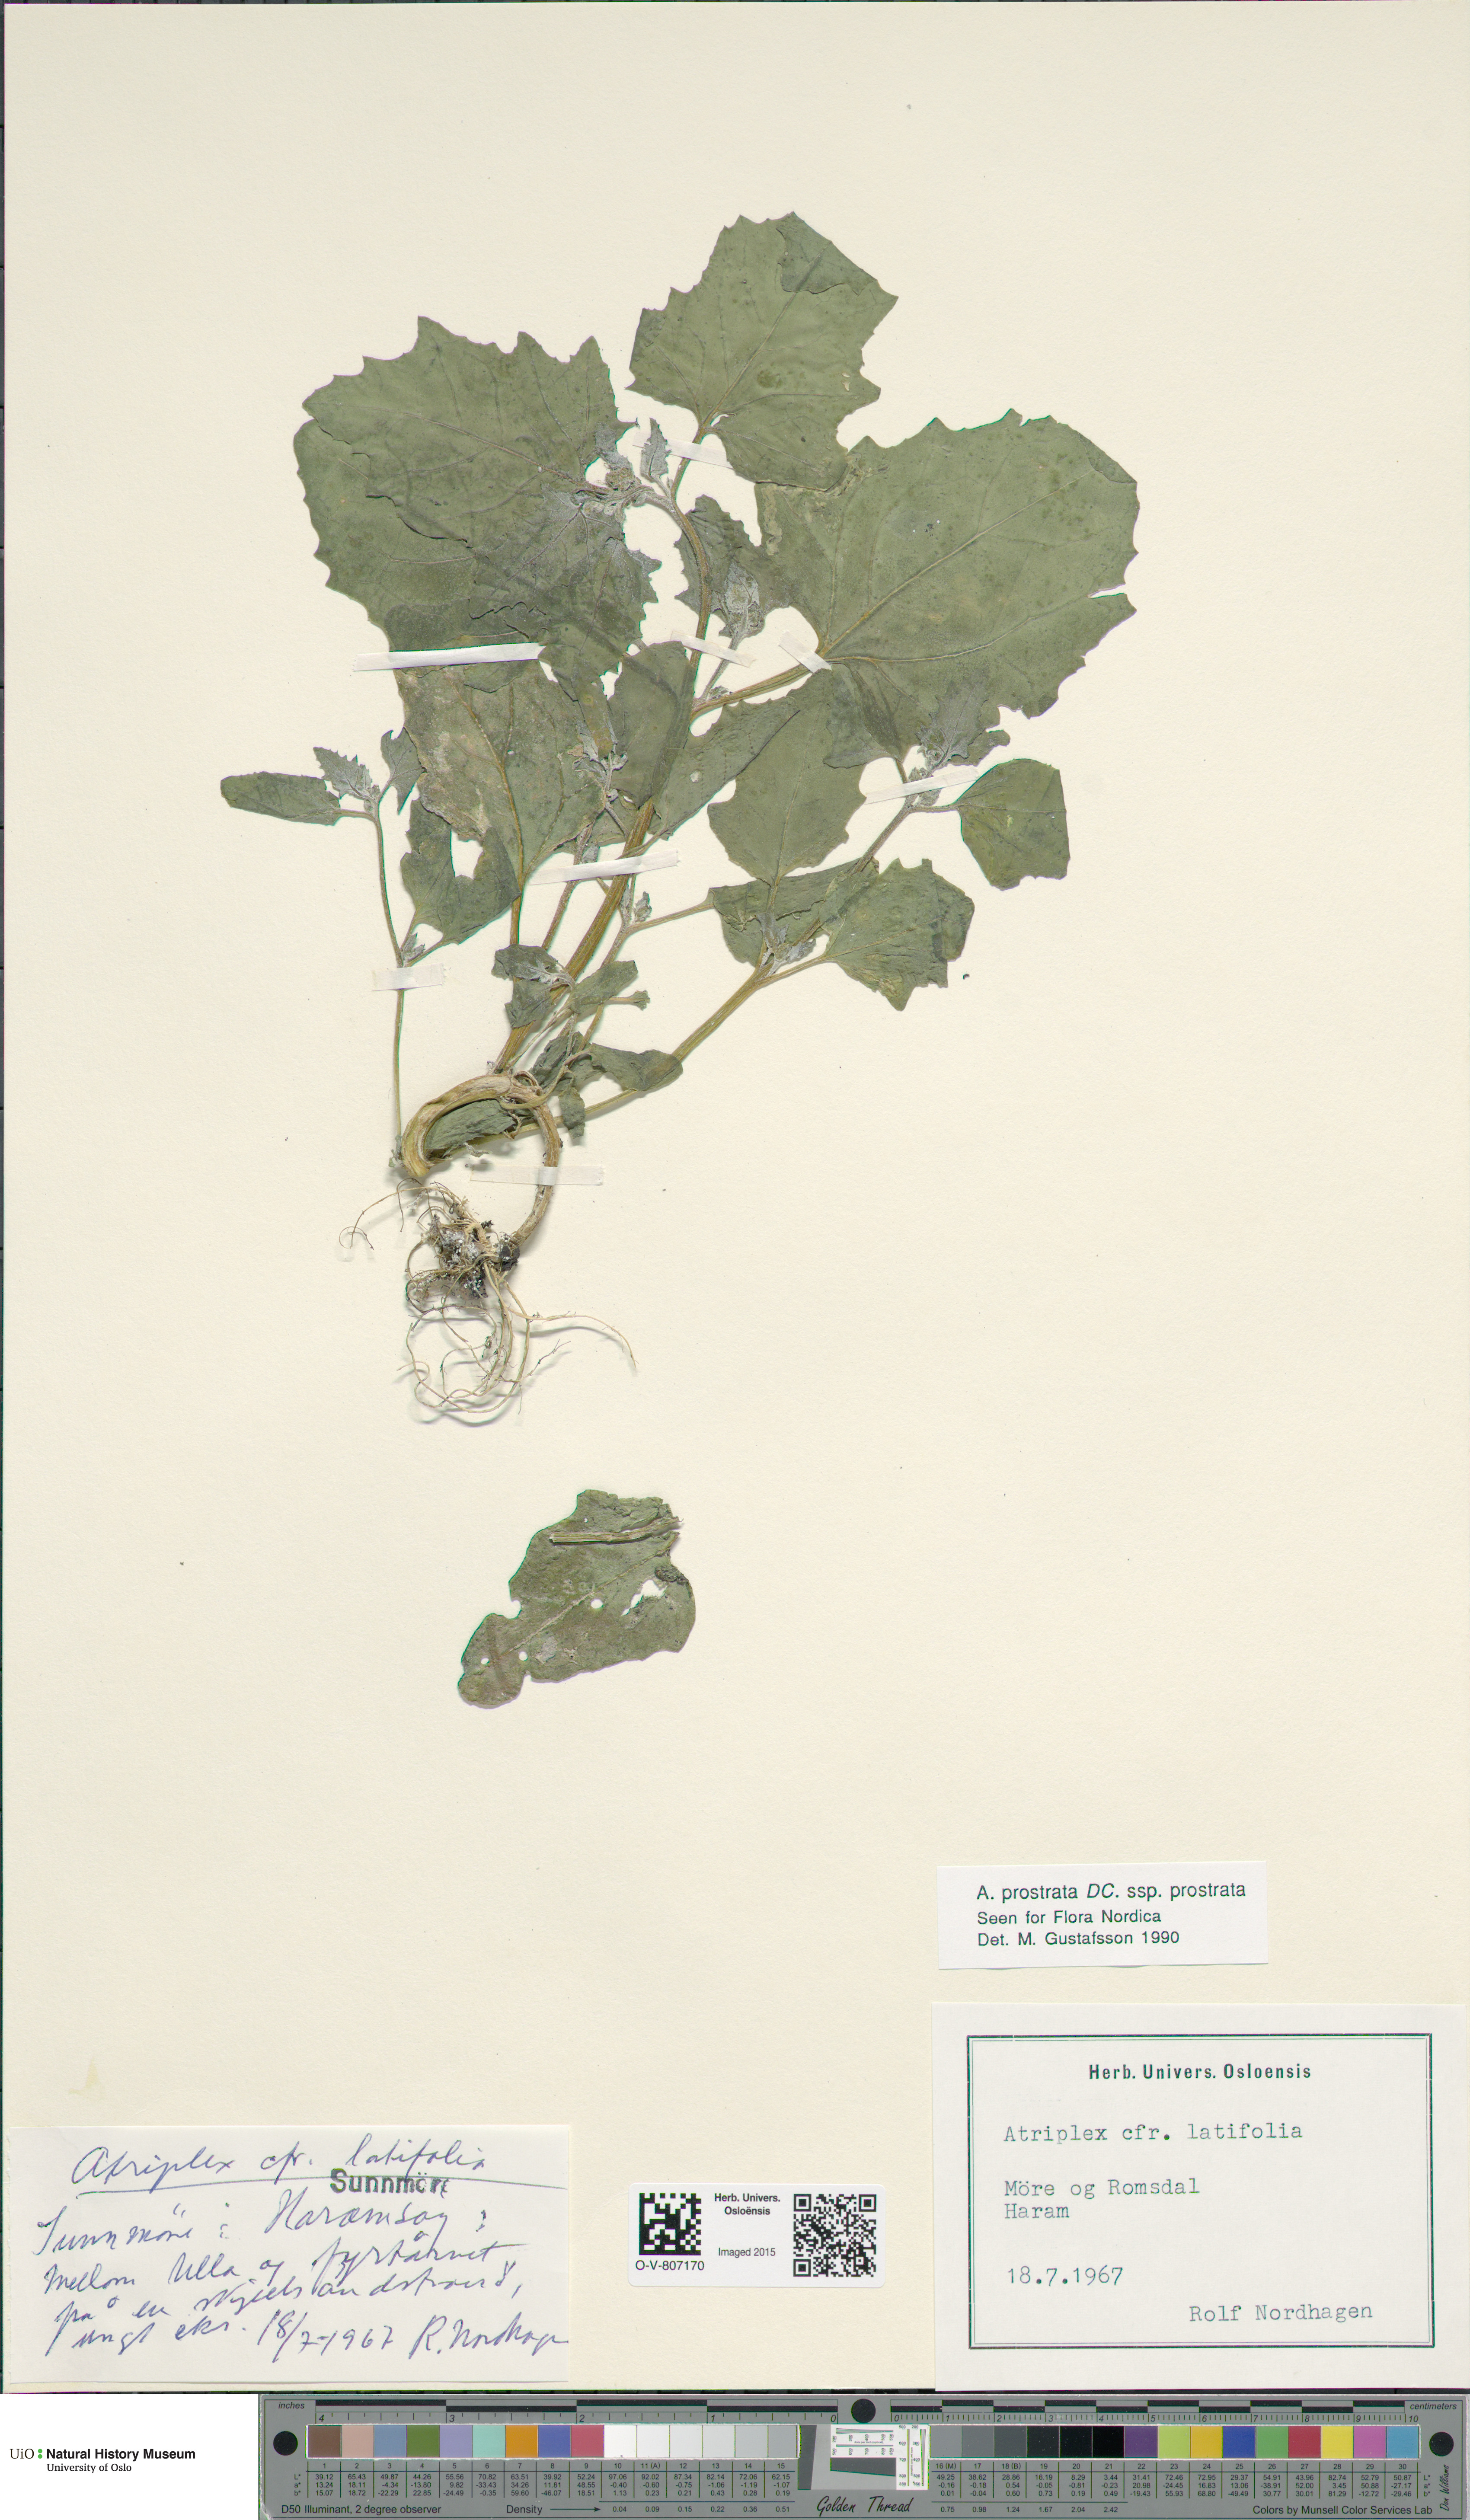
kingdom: Plantae
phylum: Tracheophyta
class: Magnoliopsida
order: Caryophyllales
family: Amaranthaceae
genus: Atriplex
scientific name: Atriplex prostrata
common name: Spear-leaved orache
